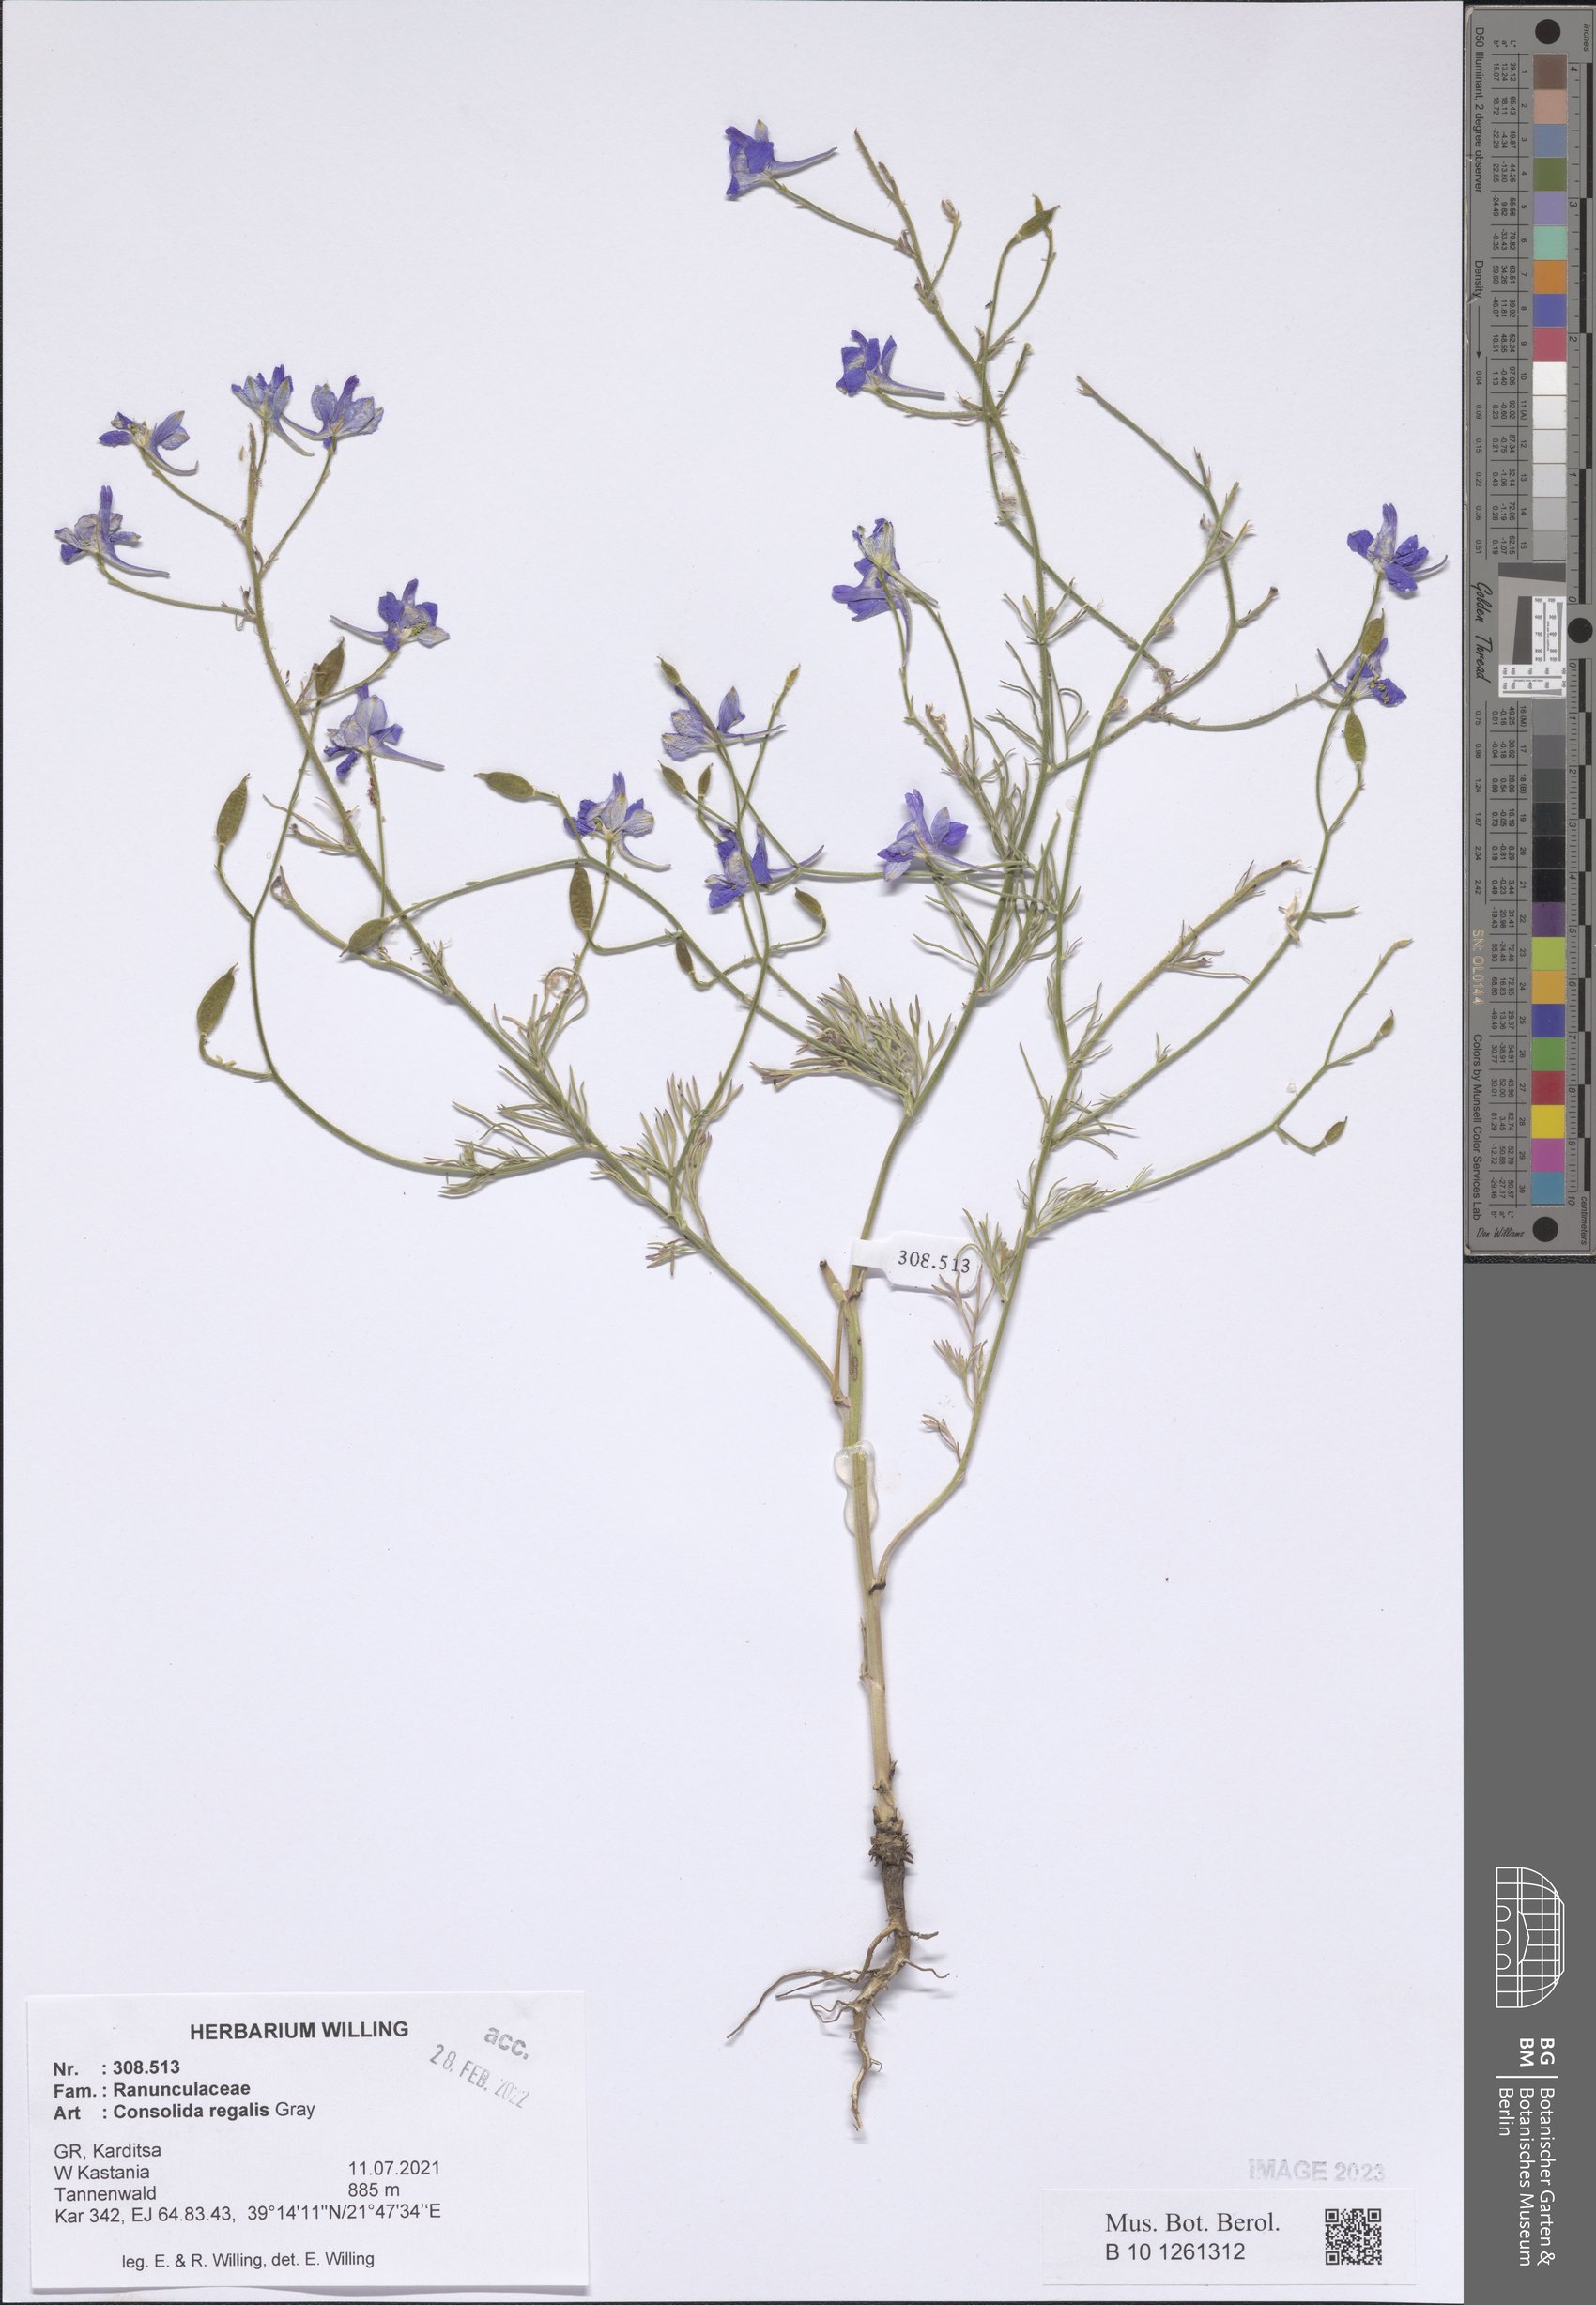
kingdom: Plantae
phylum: Tracheophyta
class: Magnoliopsida
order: Ranunculales
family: Ranunculaceae
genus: Delphinium
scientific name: Delphinium consolida
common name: Branching larkspur
